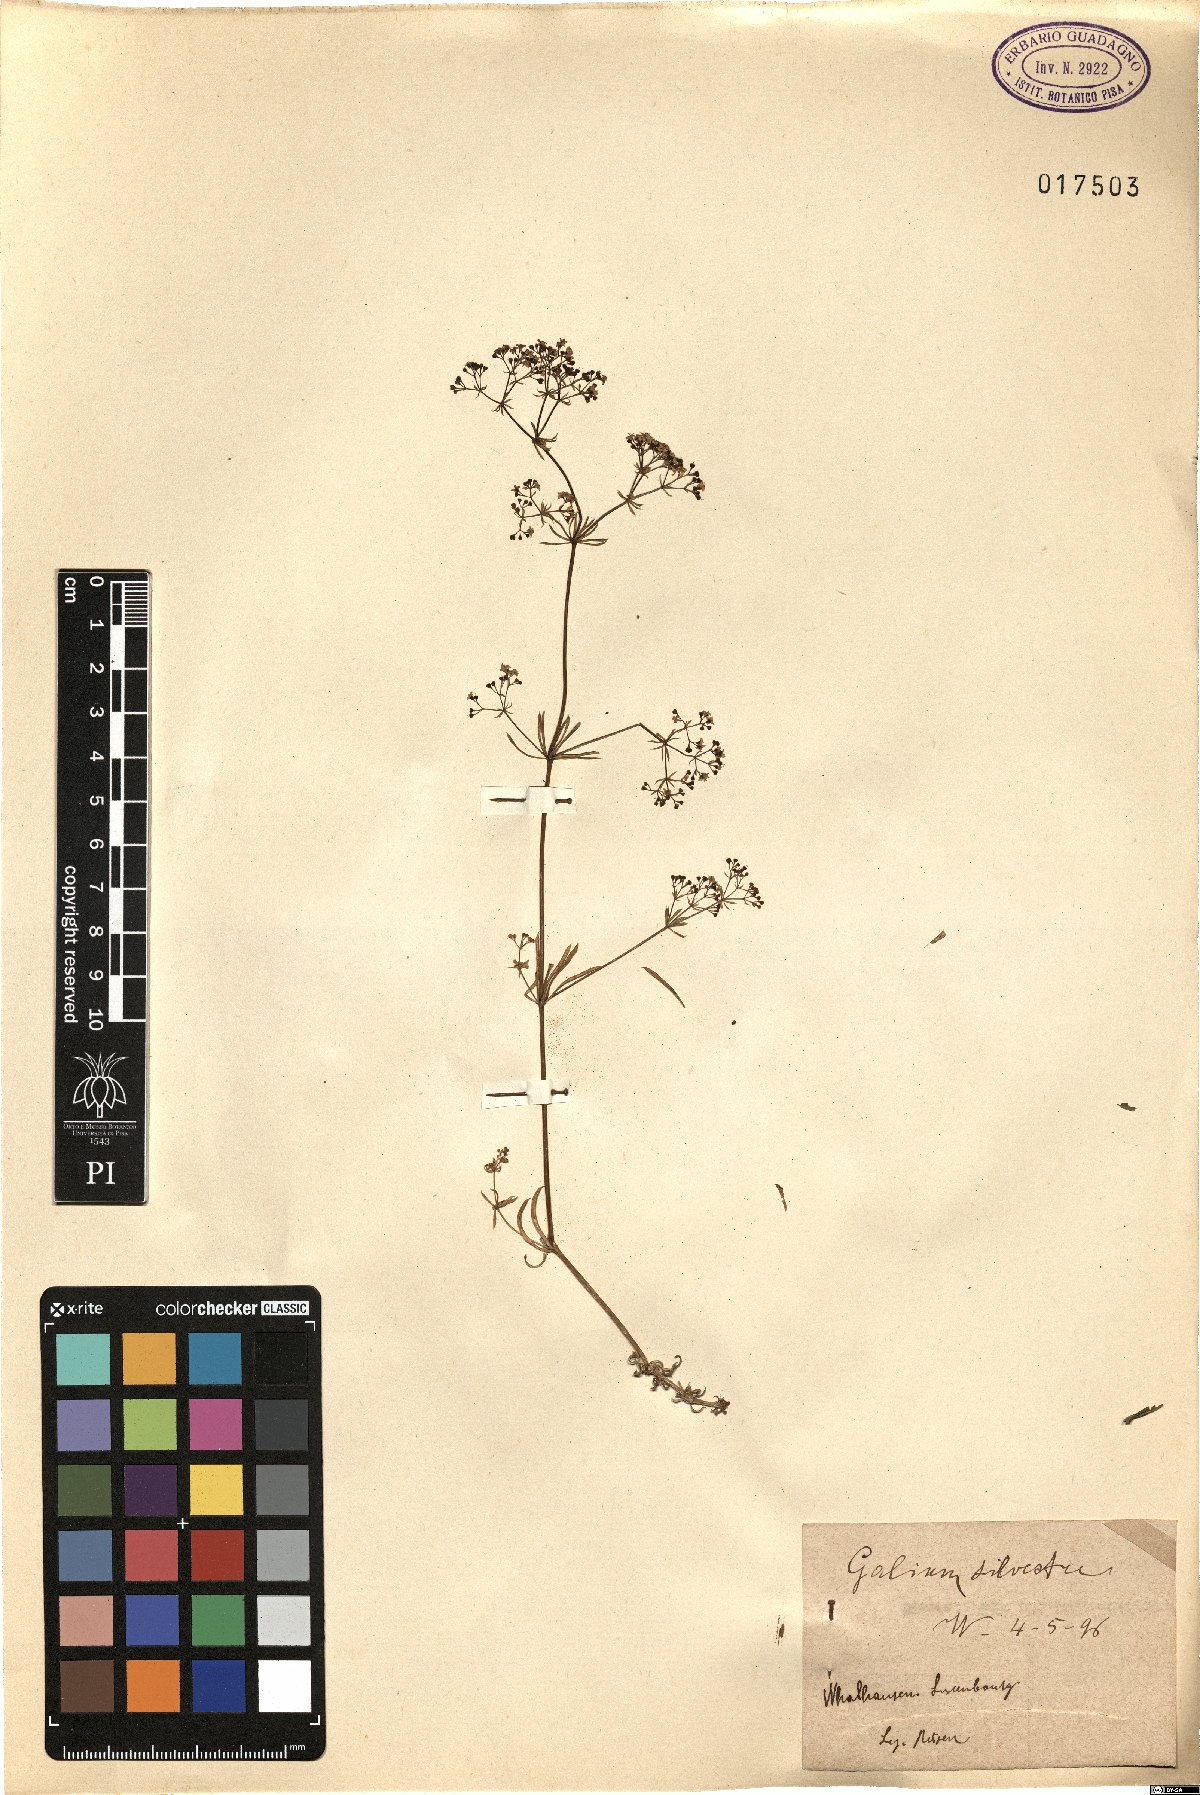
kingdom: Plantae
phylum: Tracheophyta
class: Magnoliopsida
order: Gentianales
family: Rubiaceae
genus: Galium
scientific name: Galium pumilum
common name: Slender bedstraw
